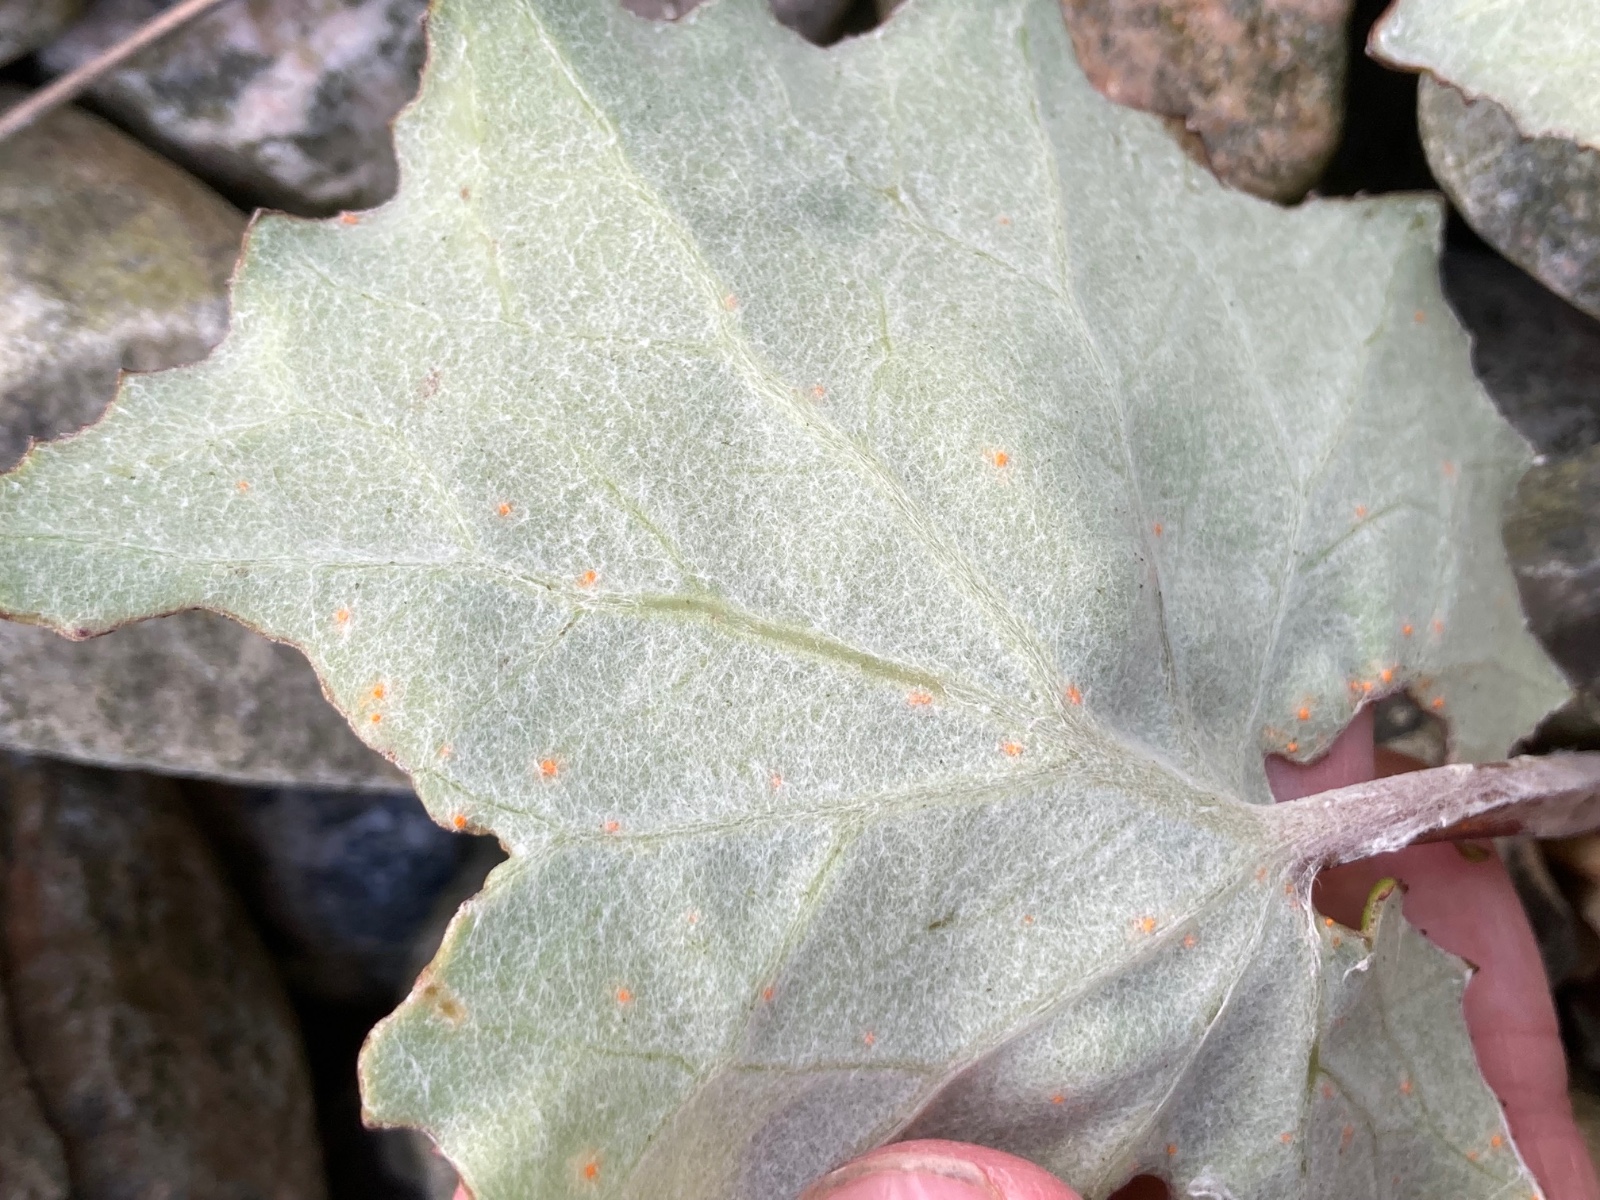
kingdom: Fungi
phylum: Basidiomycota
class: Pucciniomycetes
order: Pucciniales
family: Coleosporiaceae
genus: Coleosporium
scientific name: Coleosporium tussilaginis
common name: almindelig fyrrenålerust
